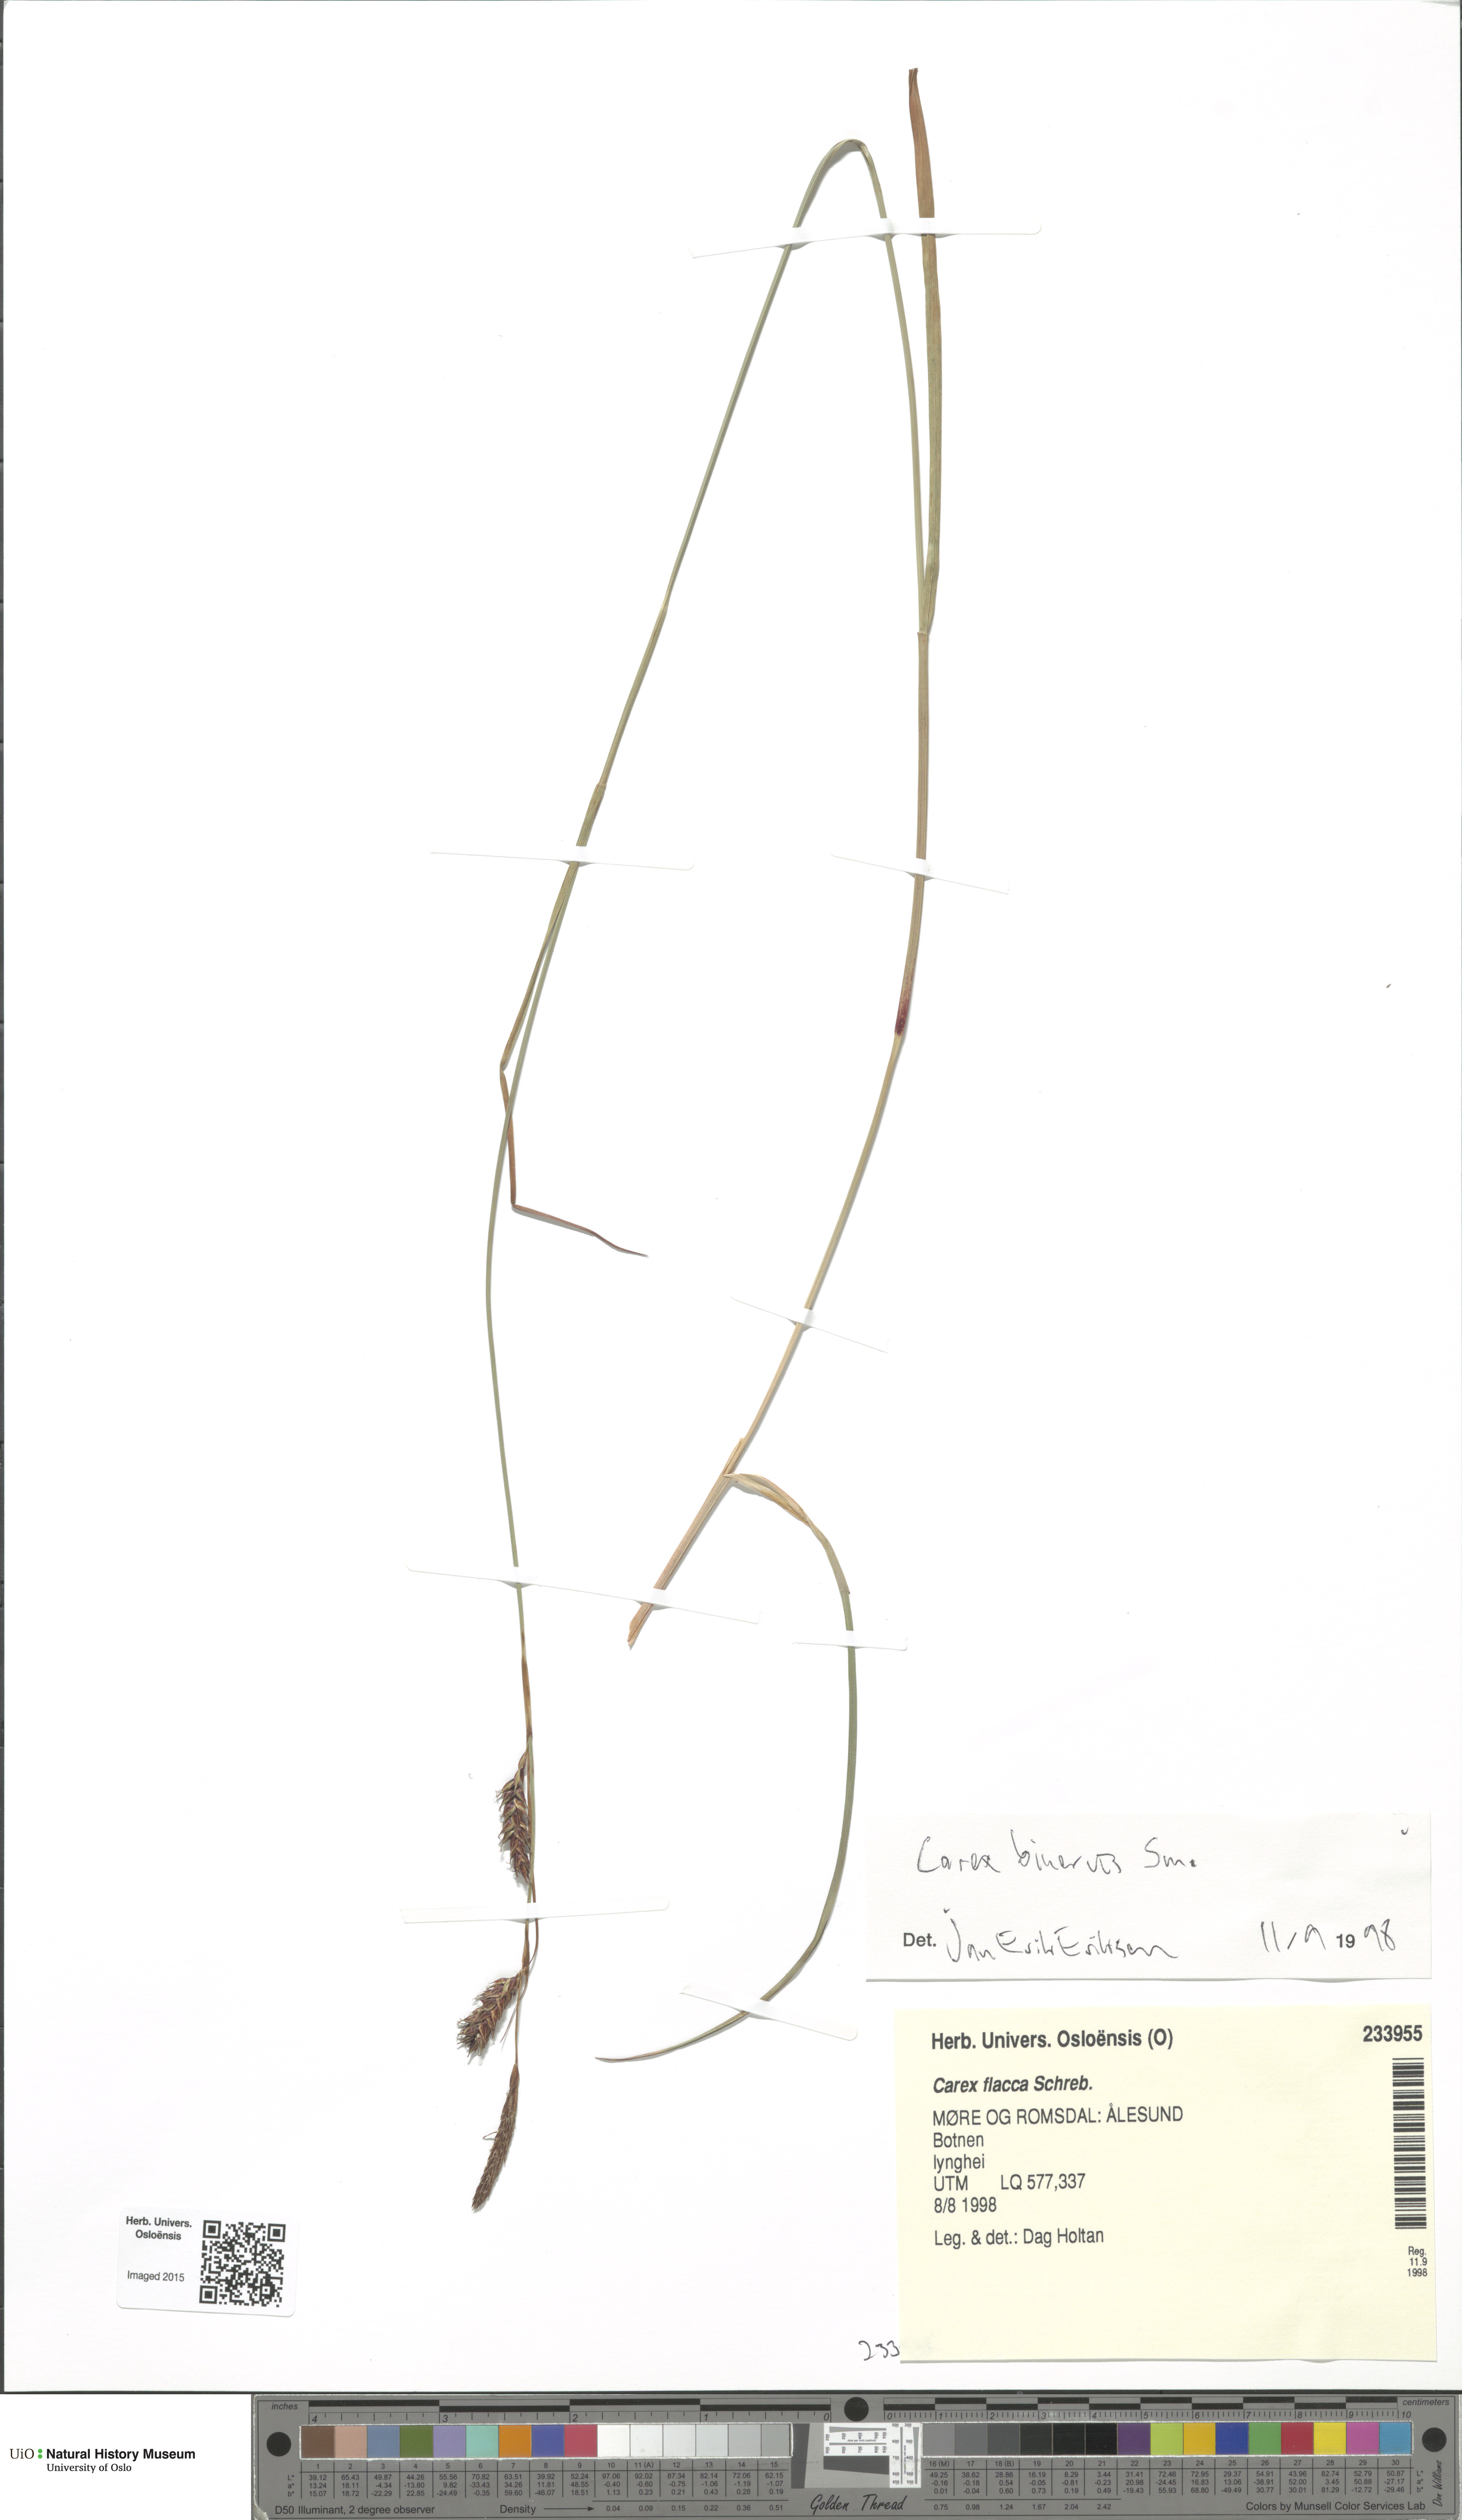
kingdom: Plantae
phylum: Tracheophyta
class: Liliopsida
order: Poales
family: Cyperaceae
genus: Carex
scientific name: Carex binervis
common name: Green-ribbed sedge
